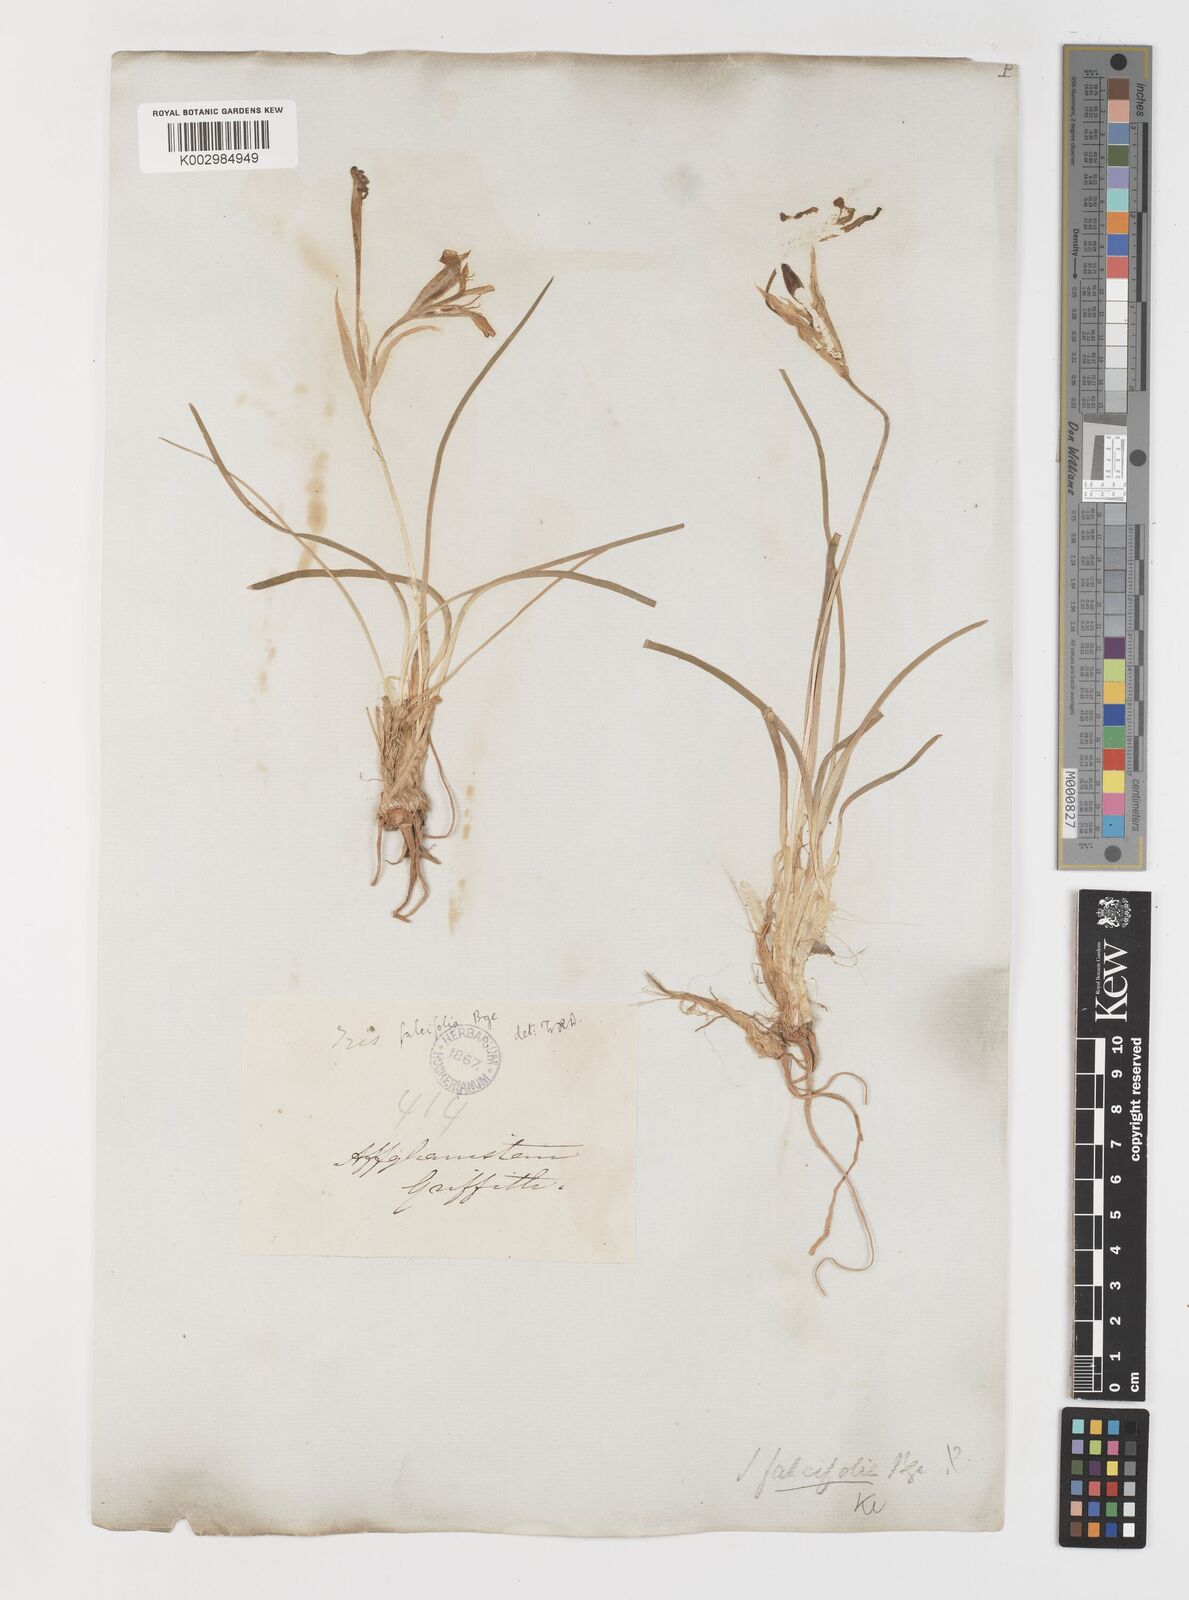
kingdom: Plantae
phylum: Tracheophyta
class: Liliopsida
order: Asparagales
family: Iridaceae
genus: Iris
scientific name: Iris longiscapa
